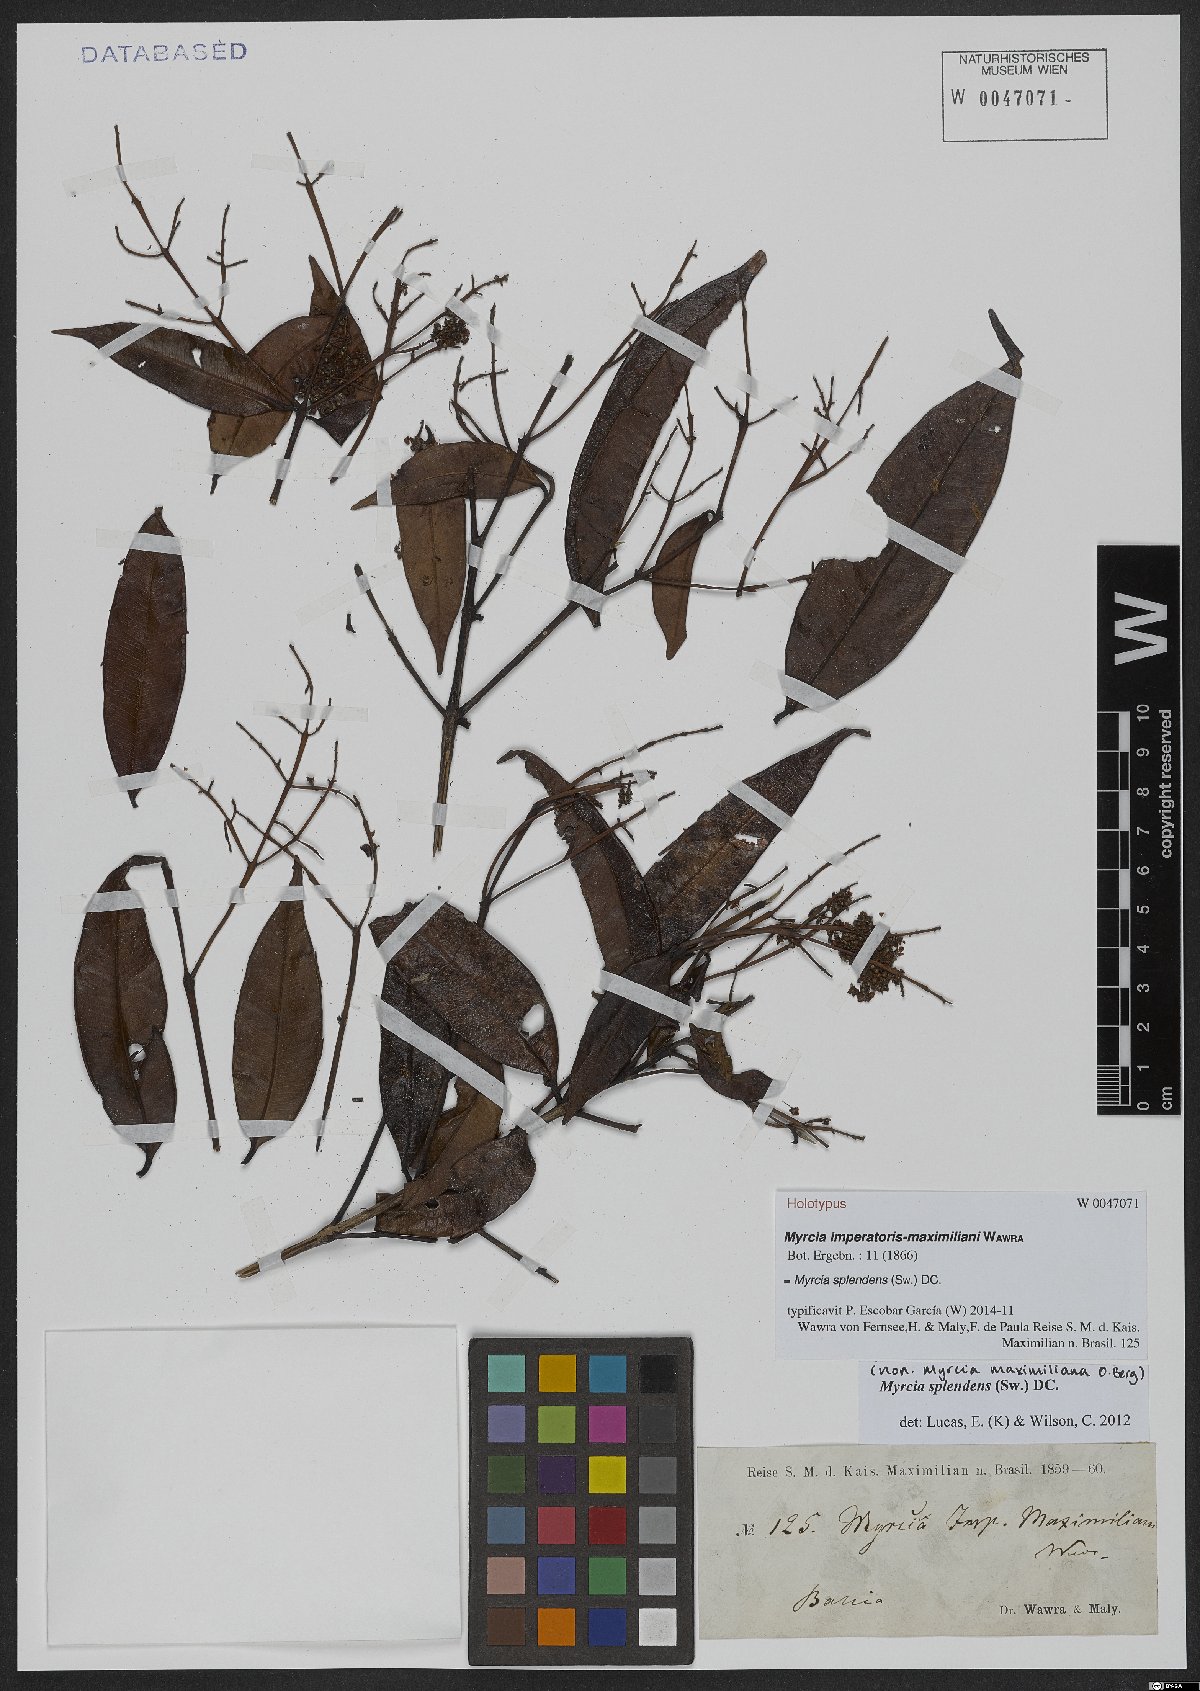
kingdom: Plantae
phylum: Tracheophyta
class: Magnoliopsida
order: Myrtales
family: Myrtaceae
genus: Myrcia
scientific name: Myrcia splendens
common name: Surinam cherry
